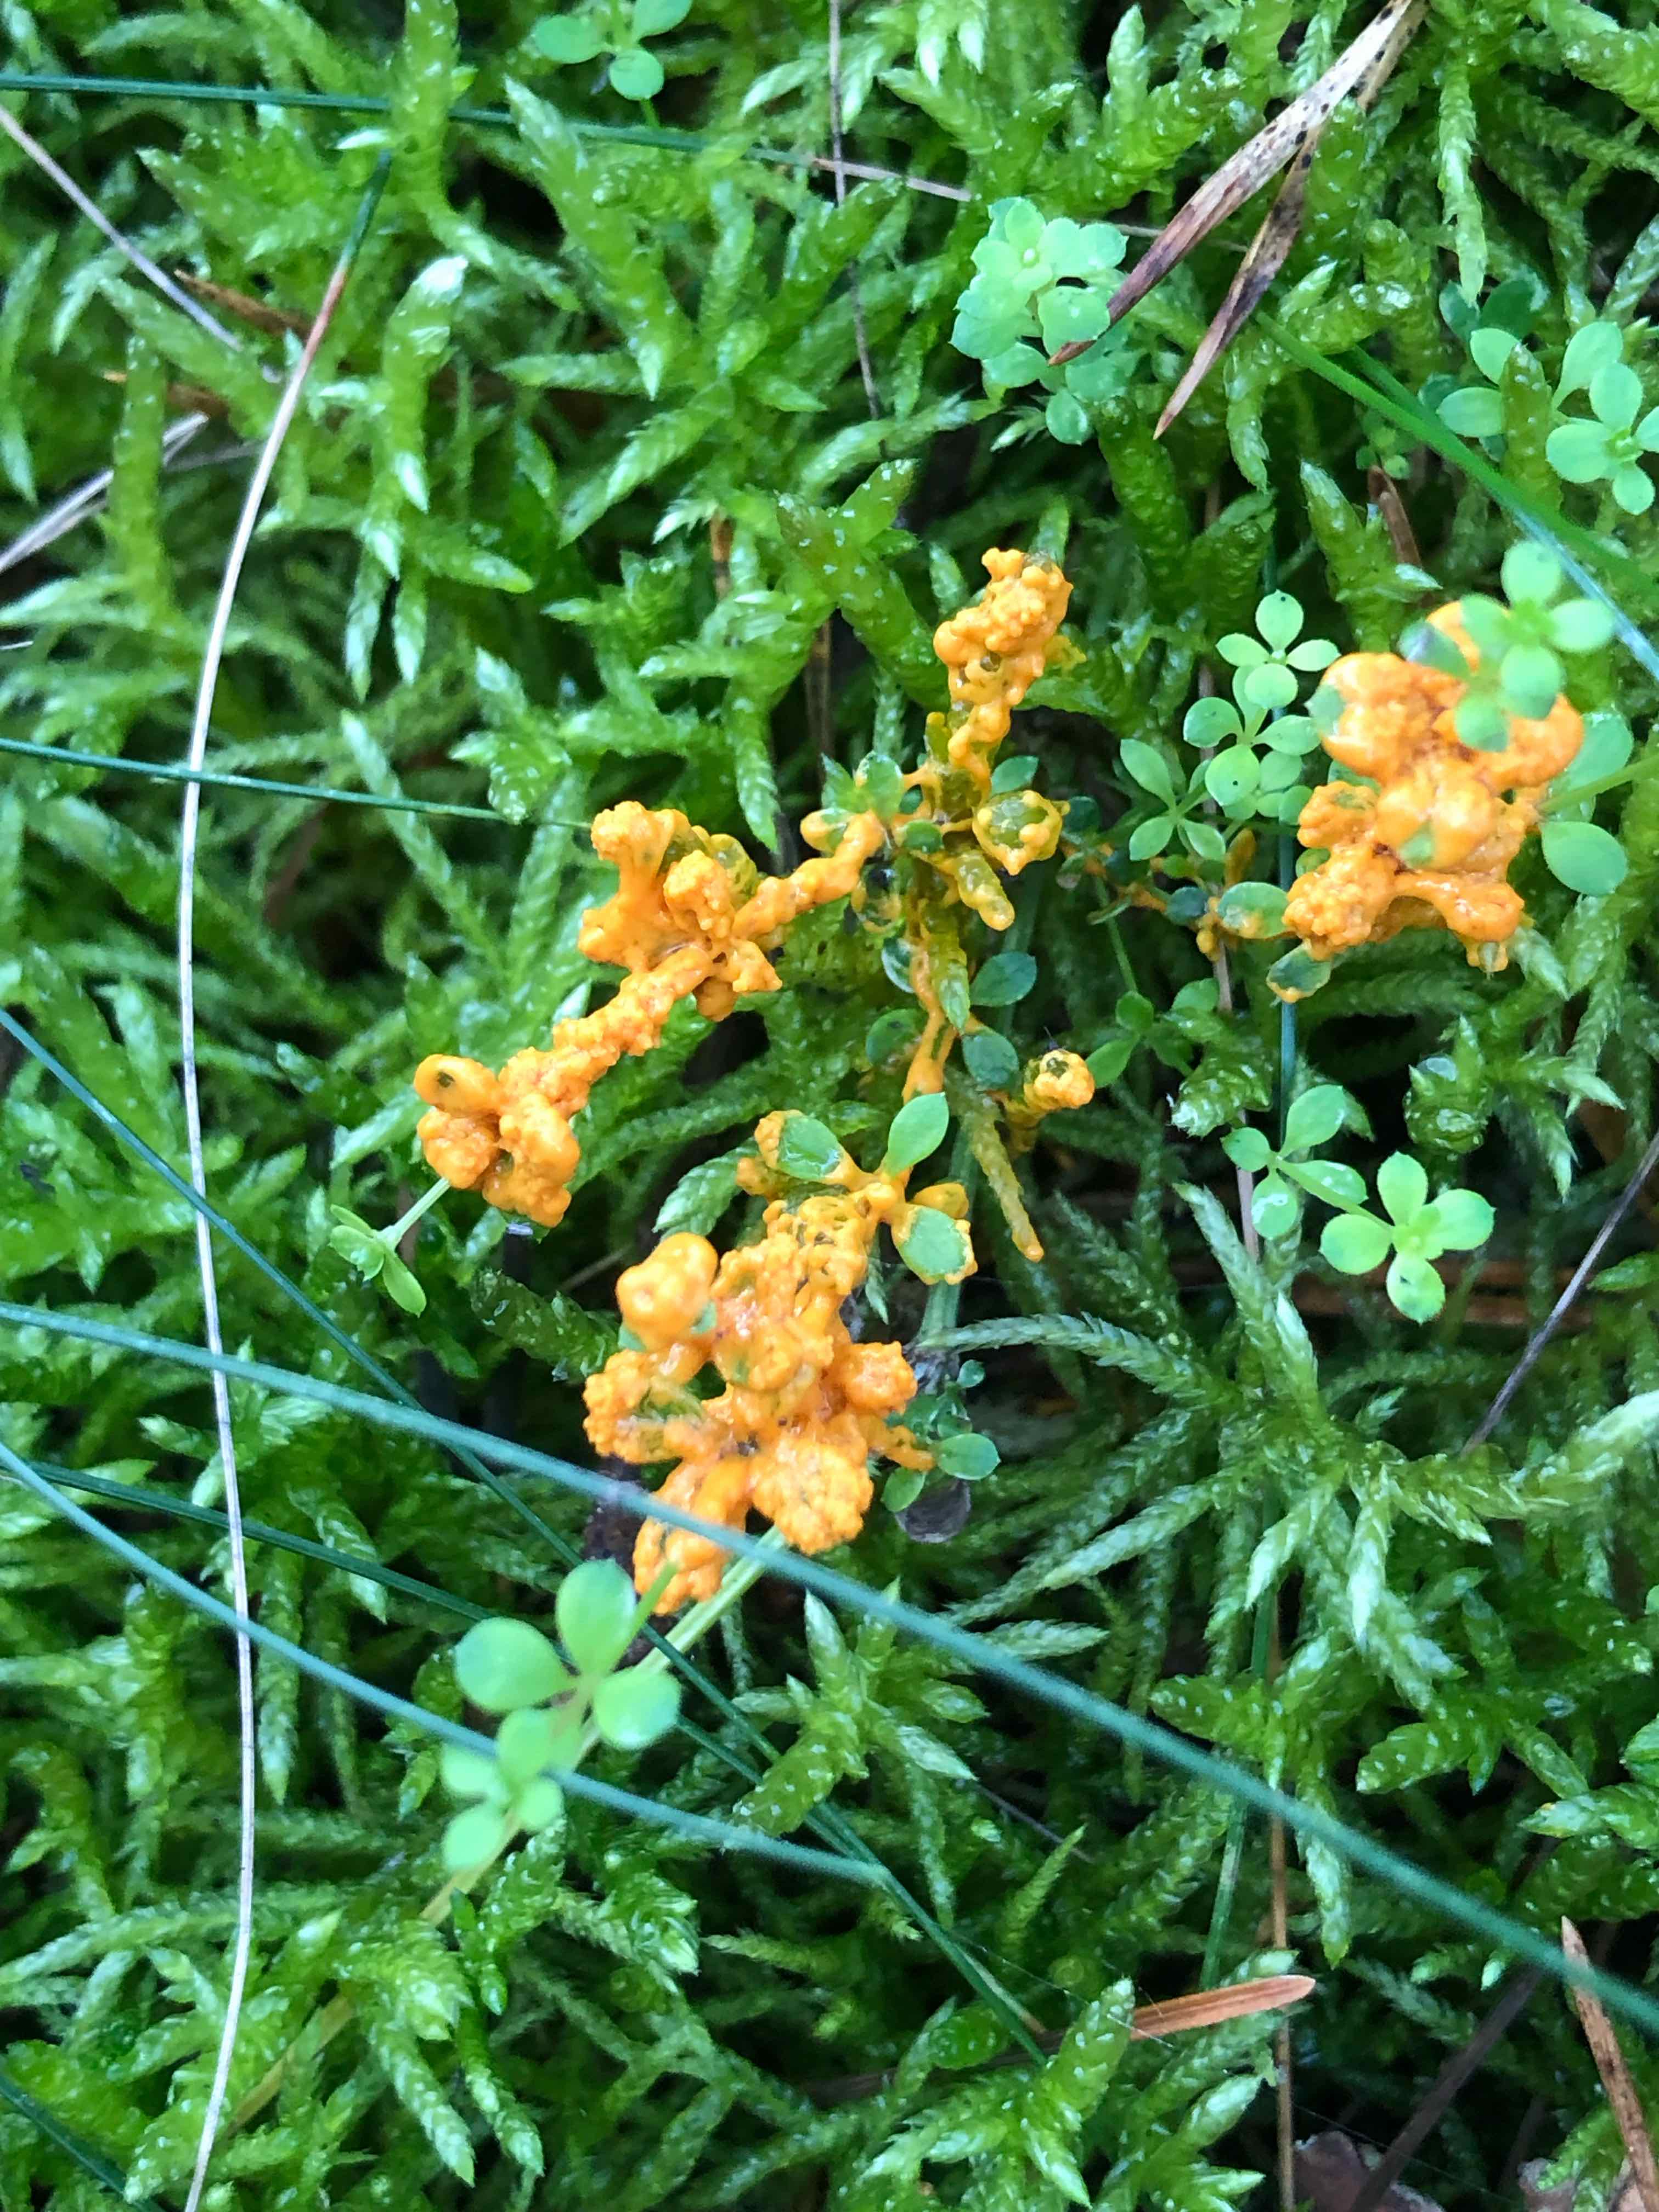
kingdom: Protozoa
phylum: Mycetozoa
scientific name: Mycetozoa
